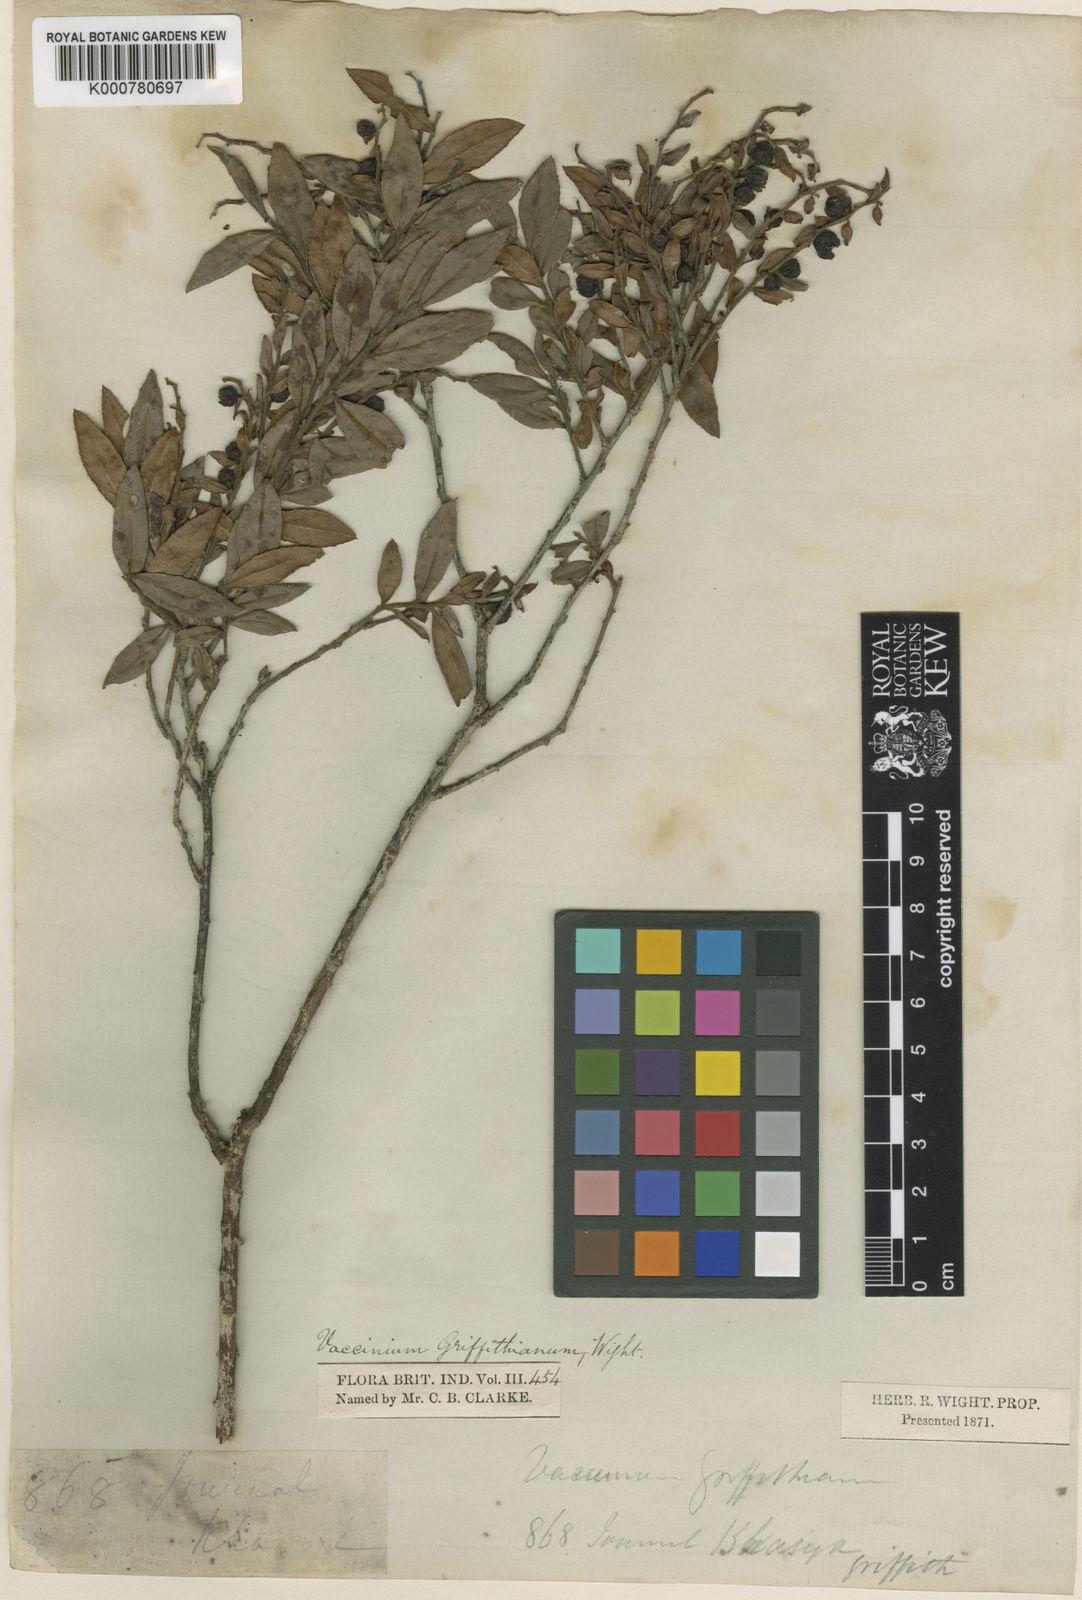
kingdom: Plantae
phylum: Tracheophyta
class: Magnoliopsida
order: Ericales
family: Ericaceae
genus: Vaccinium
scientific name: Vaccinium griffithianum
